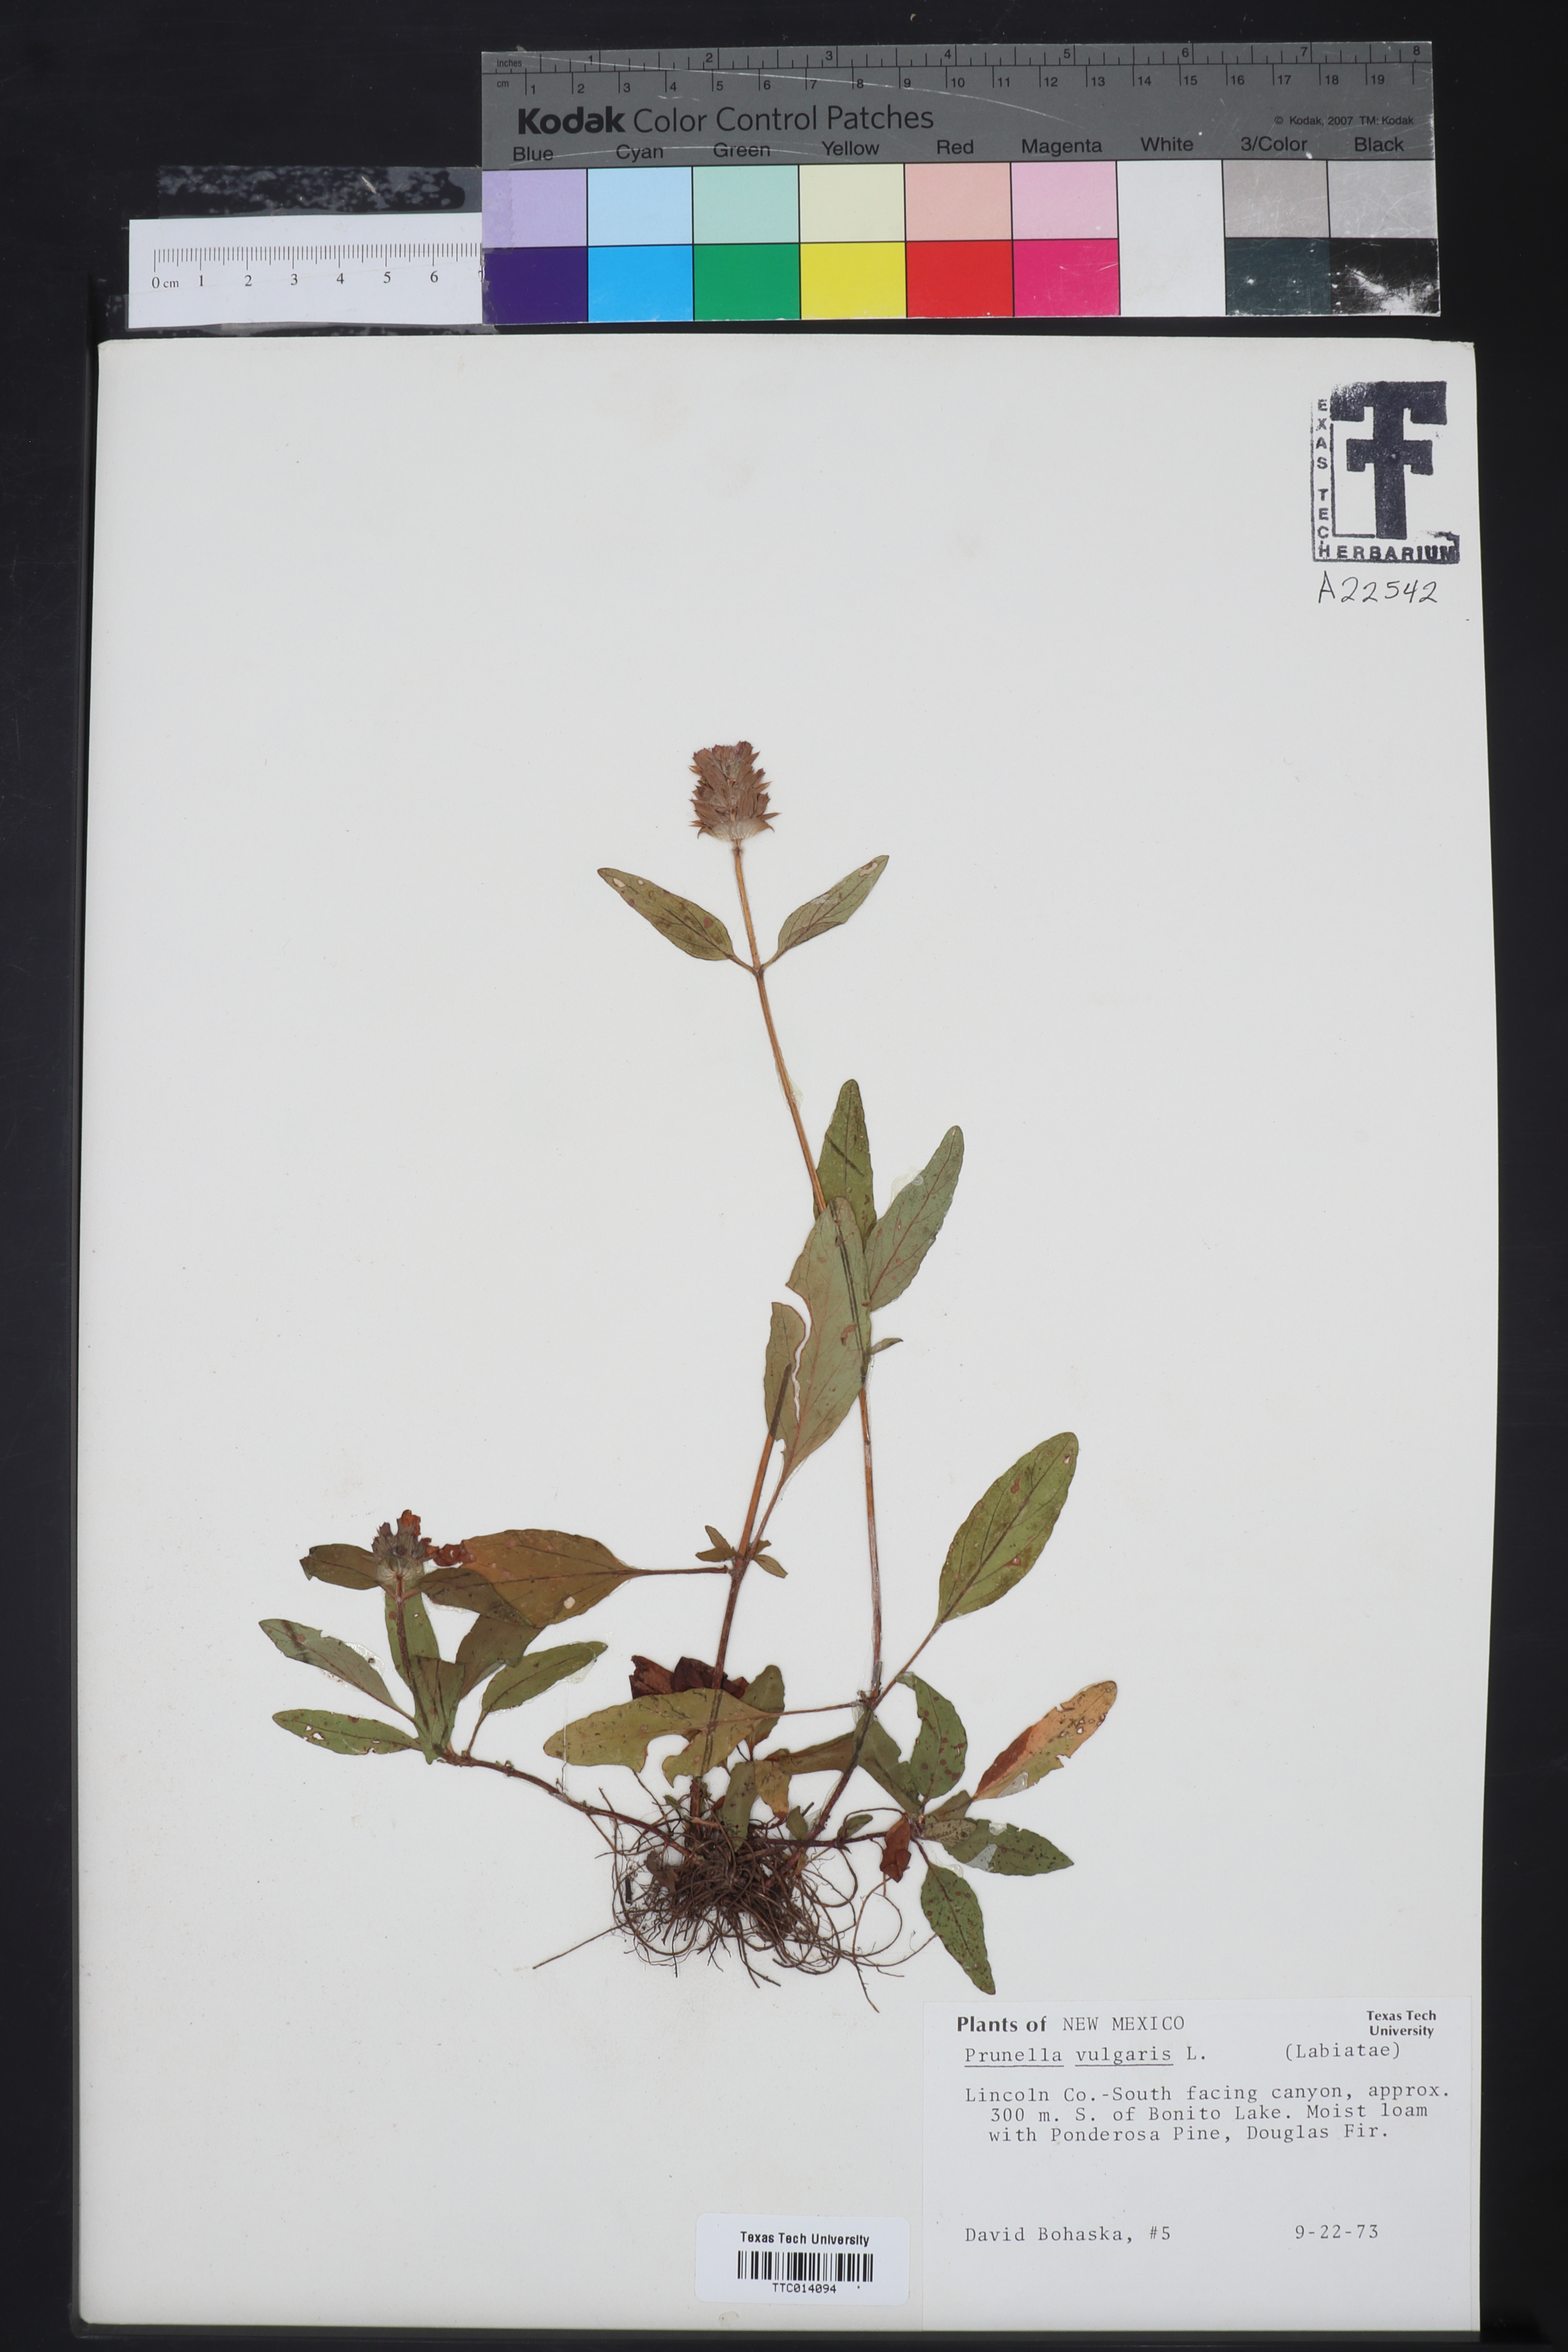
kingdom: Plantae
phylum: Tracheophyta
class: Magnoliopsida
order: Lamiales
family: Lamiaceae
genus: Prunella
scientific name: Prunella vulgaris
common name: Heal-all
